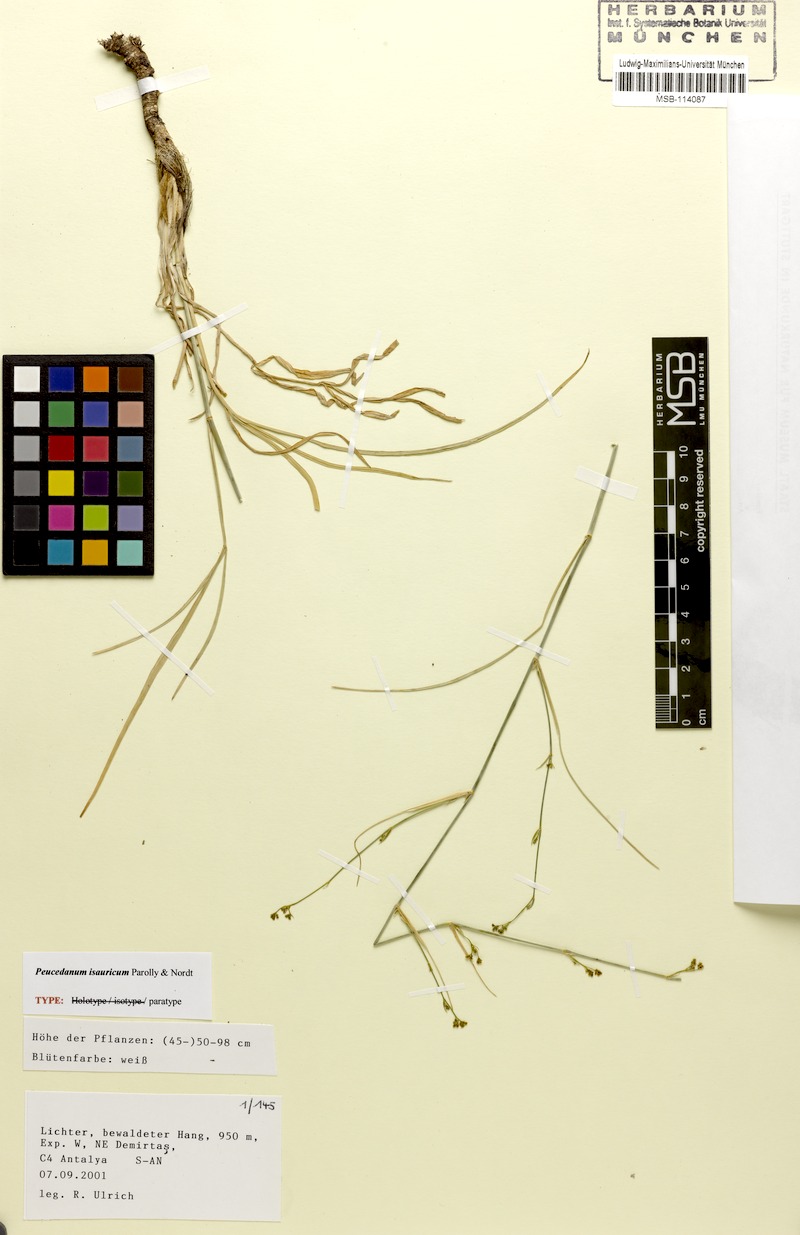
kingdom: Plantae
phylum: Tracheophyta
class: Magnoliopsida
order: Apiales
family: Apiaceae
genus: Dichoropetalum
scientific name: Dichoropetalum isauricum
